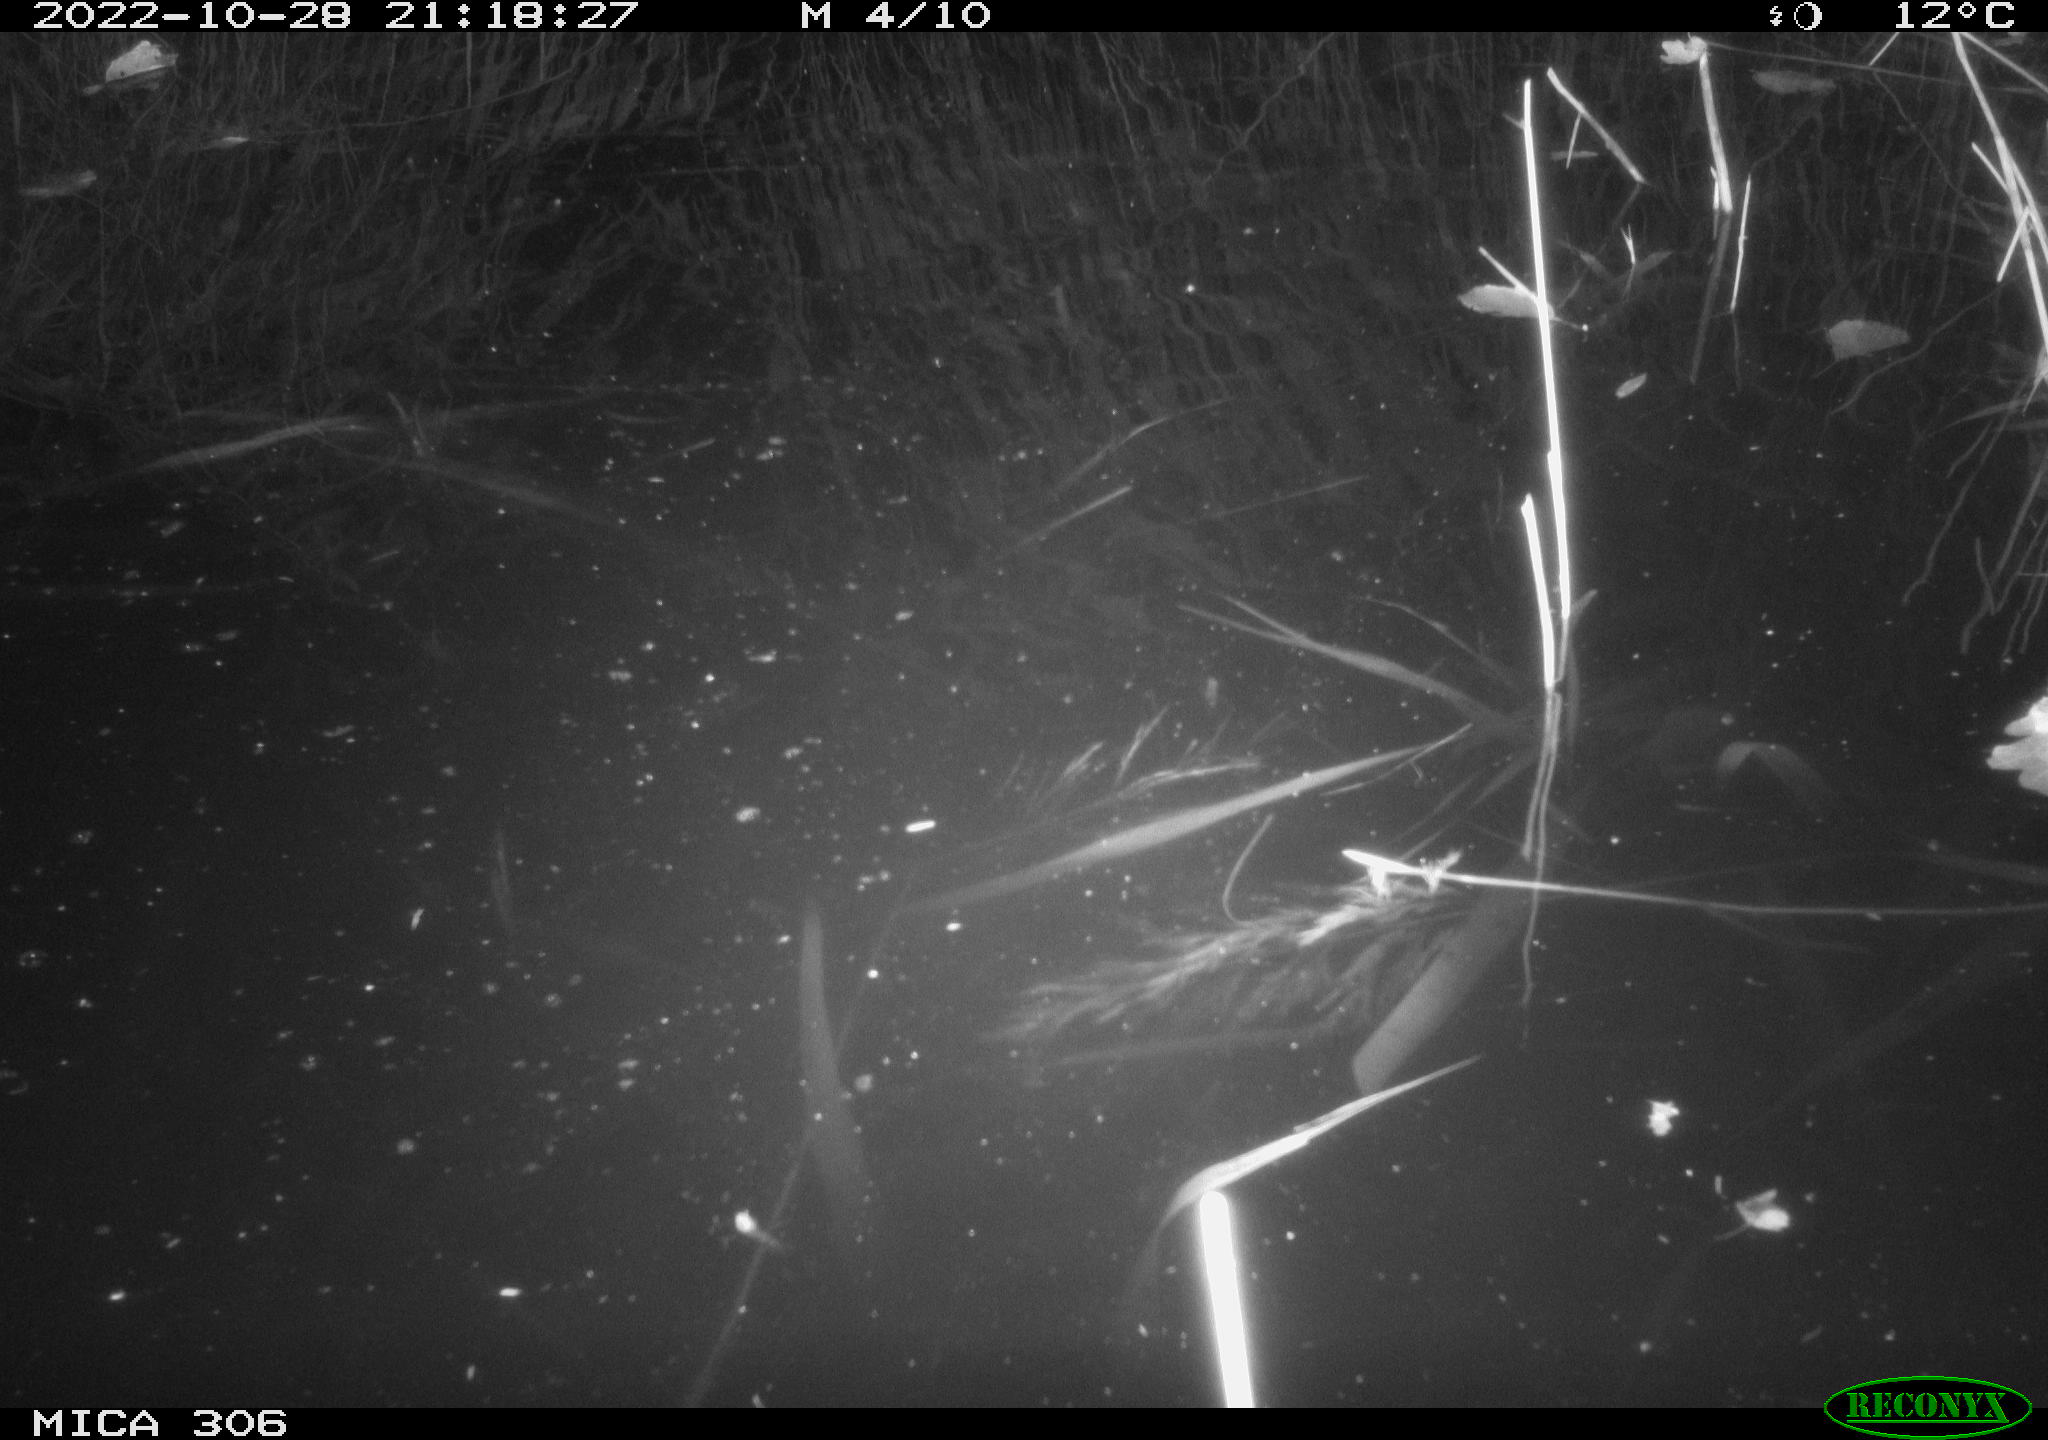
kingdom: Animalia
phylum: Chordata
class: Mammalia
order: Rodentia
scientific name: Rodentia
